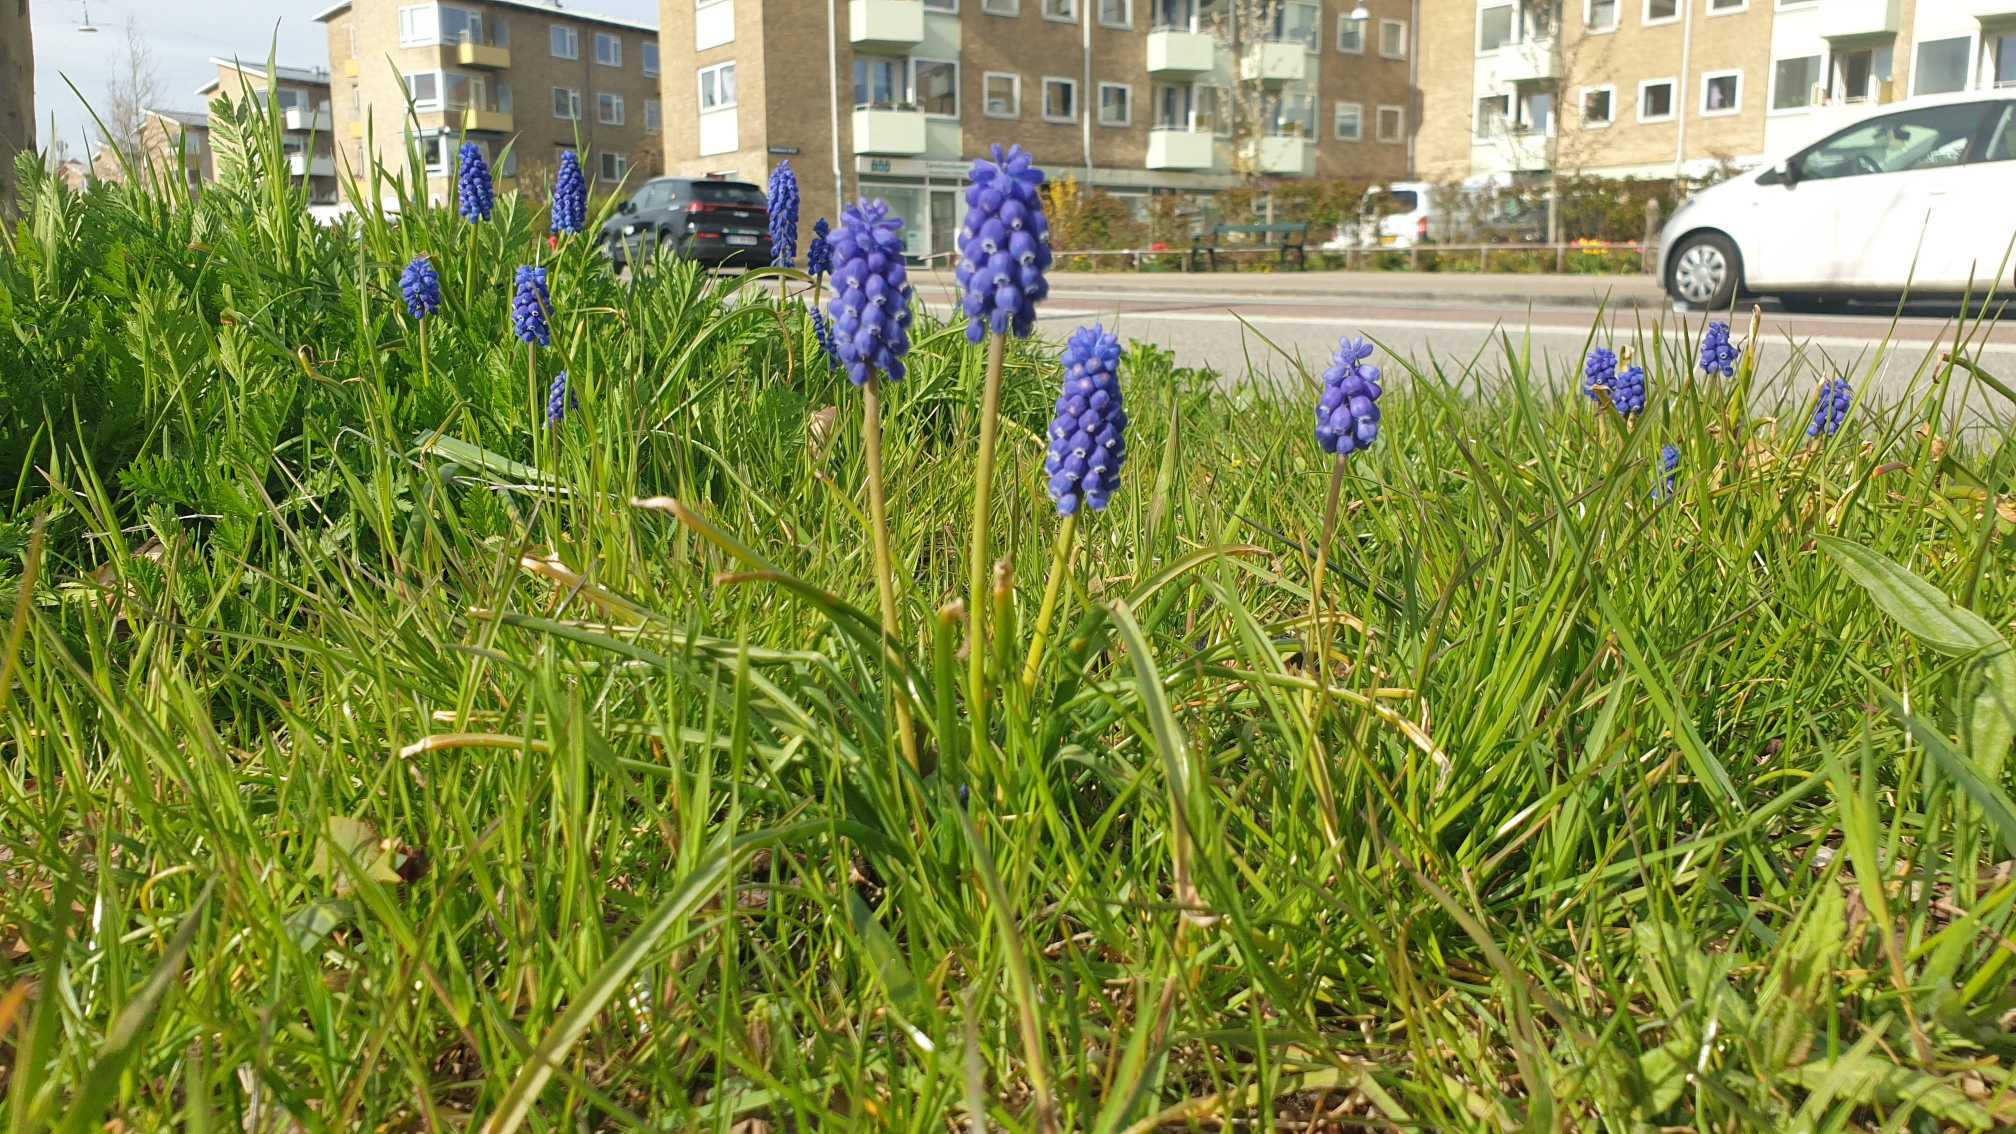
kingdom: Plantae
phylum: Tracheophyta
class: Liliopsida
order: Asparagales
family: Asparagaceae
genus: Muscari
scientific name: Muscari armeniacum
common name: Armensk perlehyacint
